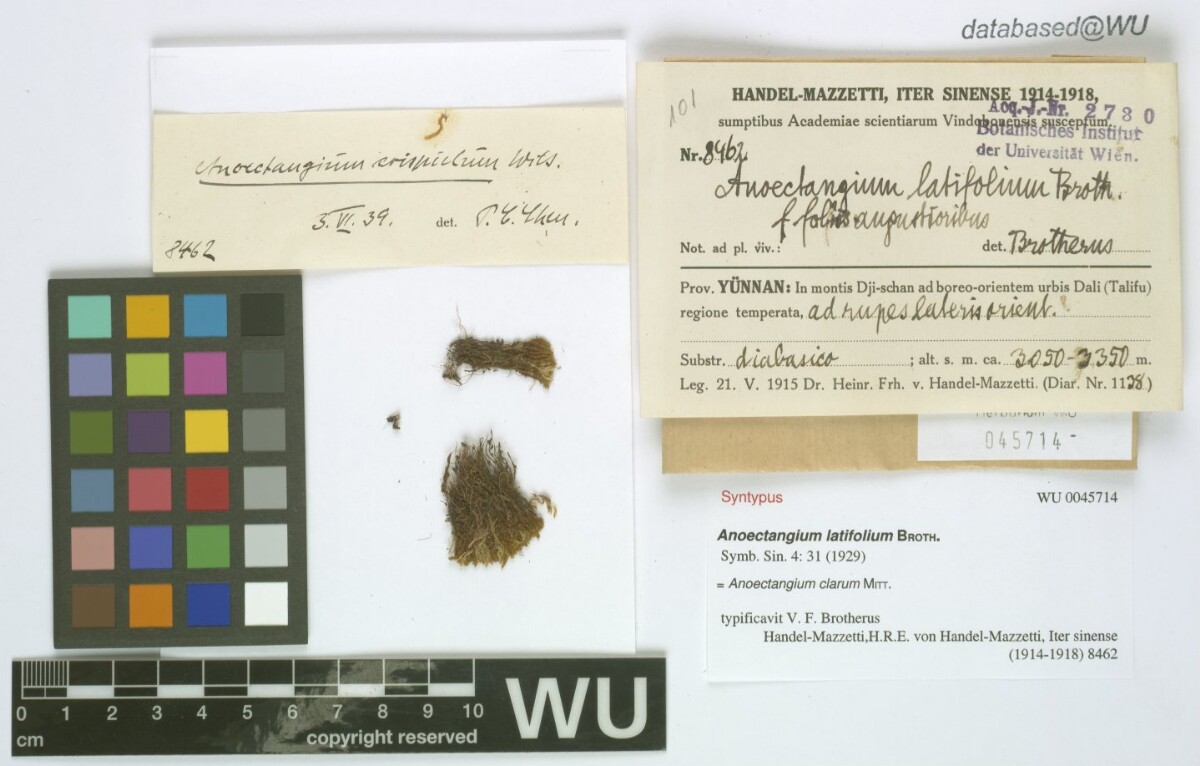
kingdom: Plantae
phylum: Bryophyta
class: Bryopsida
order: Pottiales
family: Pottiaceae
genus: Anoectangium
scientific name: Anoectangium clarum
